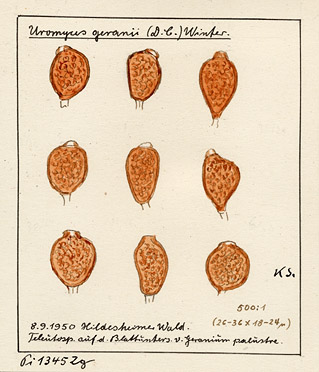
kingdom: Fungi
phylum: Basidiomycota
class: Pucciniomycetes
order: Pucciniales
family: Pucciniaceae
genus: Uromyces
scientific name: Uromyces geranii
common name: Geranium rust
